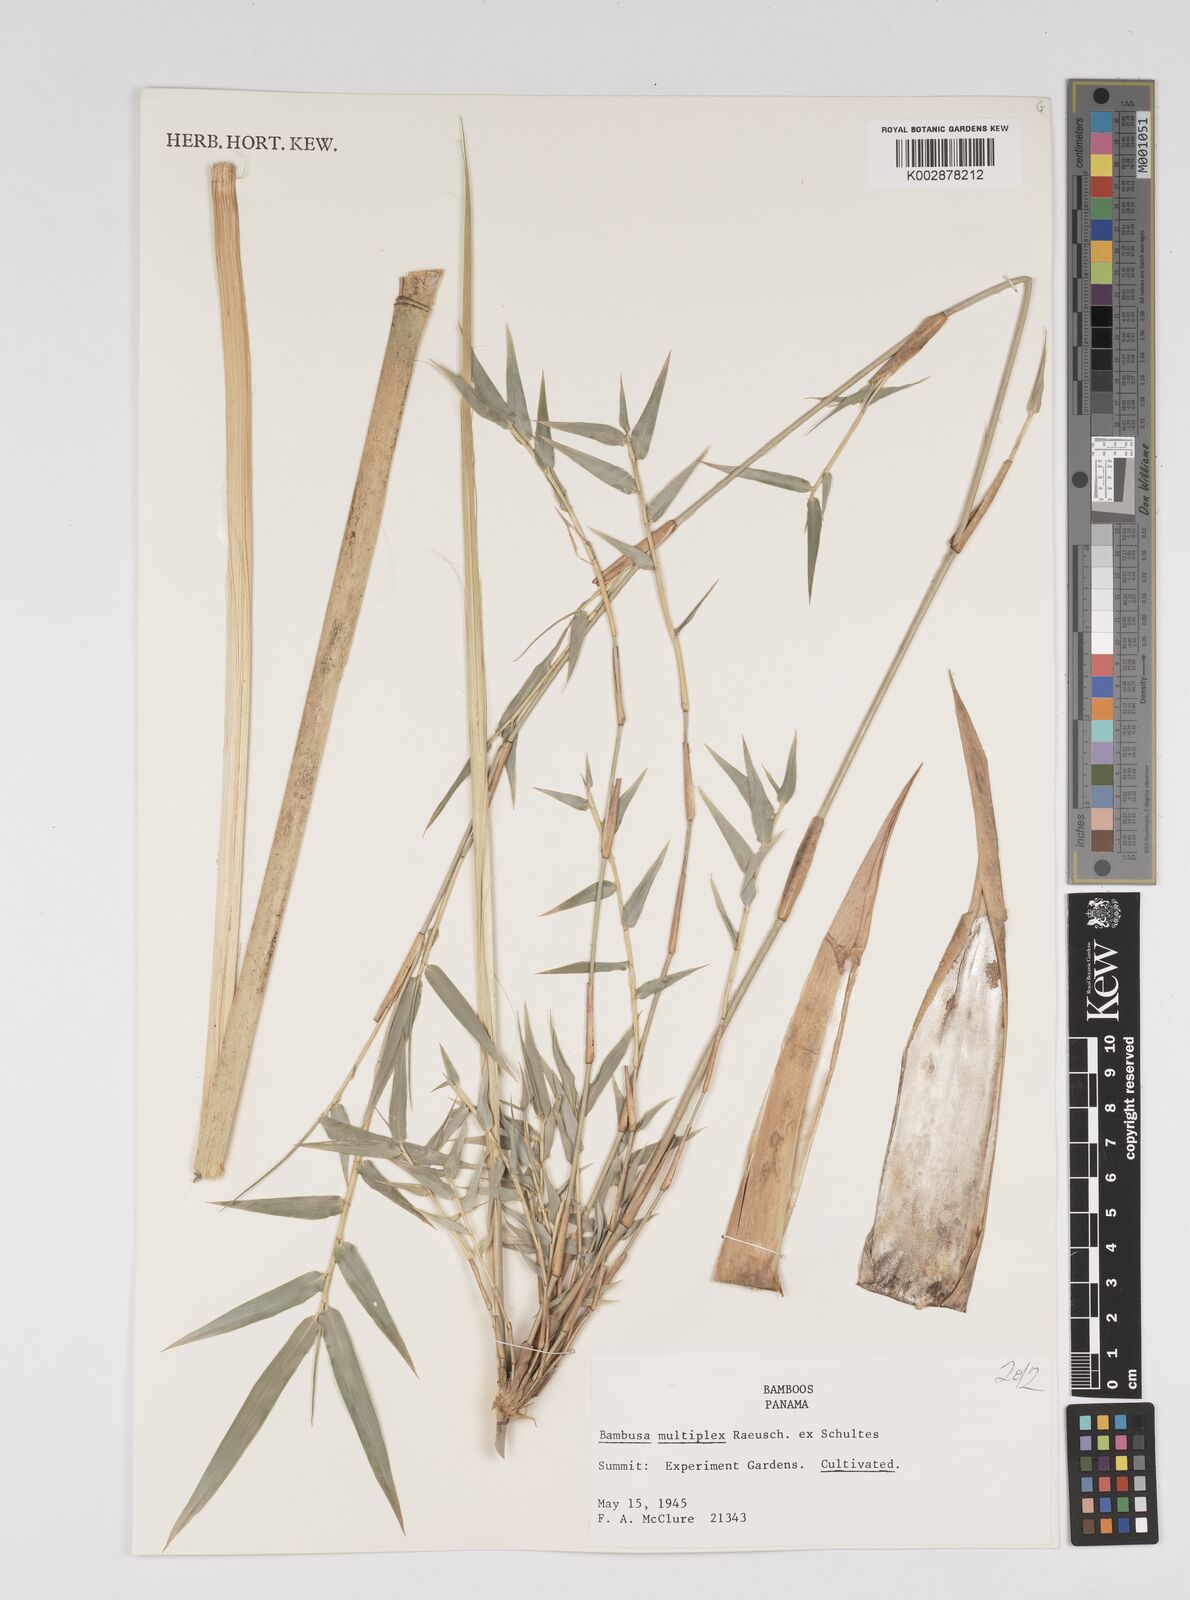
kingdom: Plantae
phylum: Tracheophyta
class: Liliopsida
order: Poales
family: Poaceae
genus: Bambusa
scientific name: Bambusa multiplex
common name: Hedge bamboo
